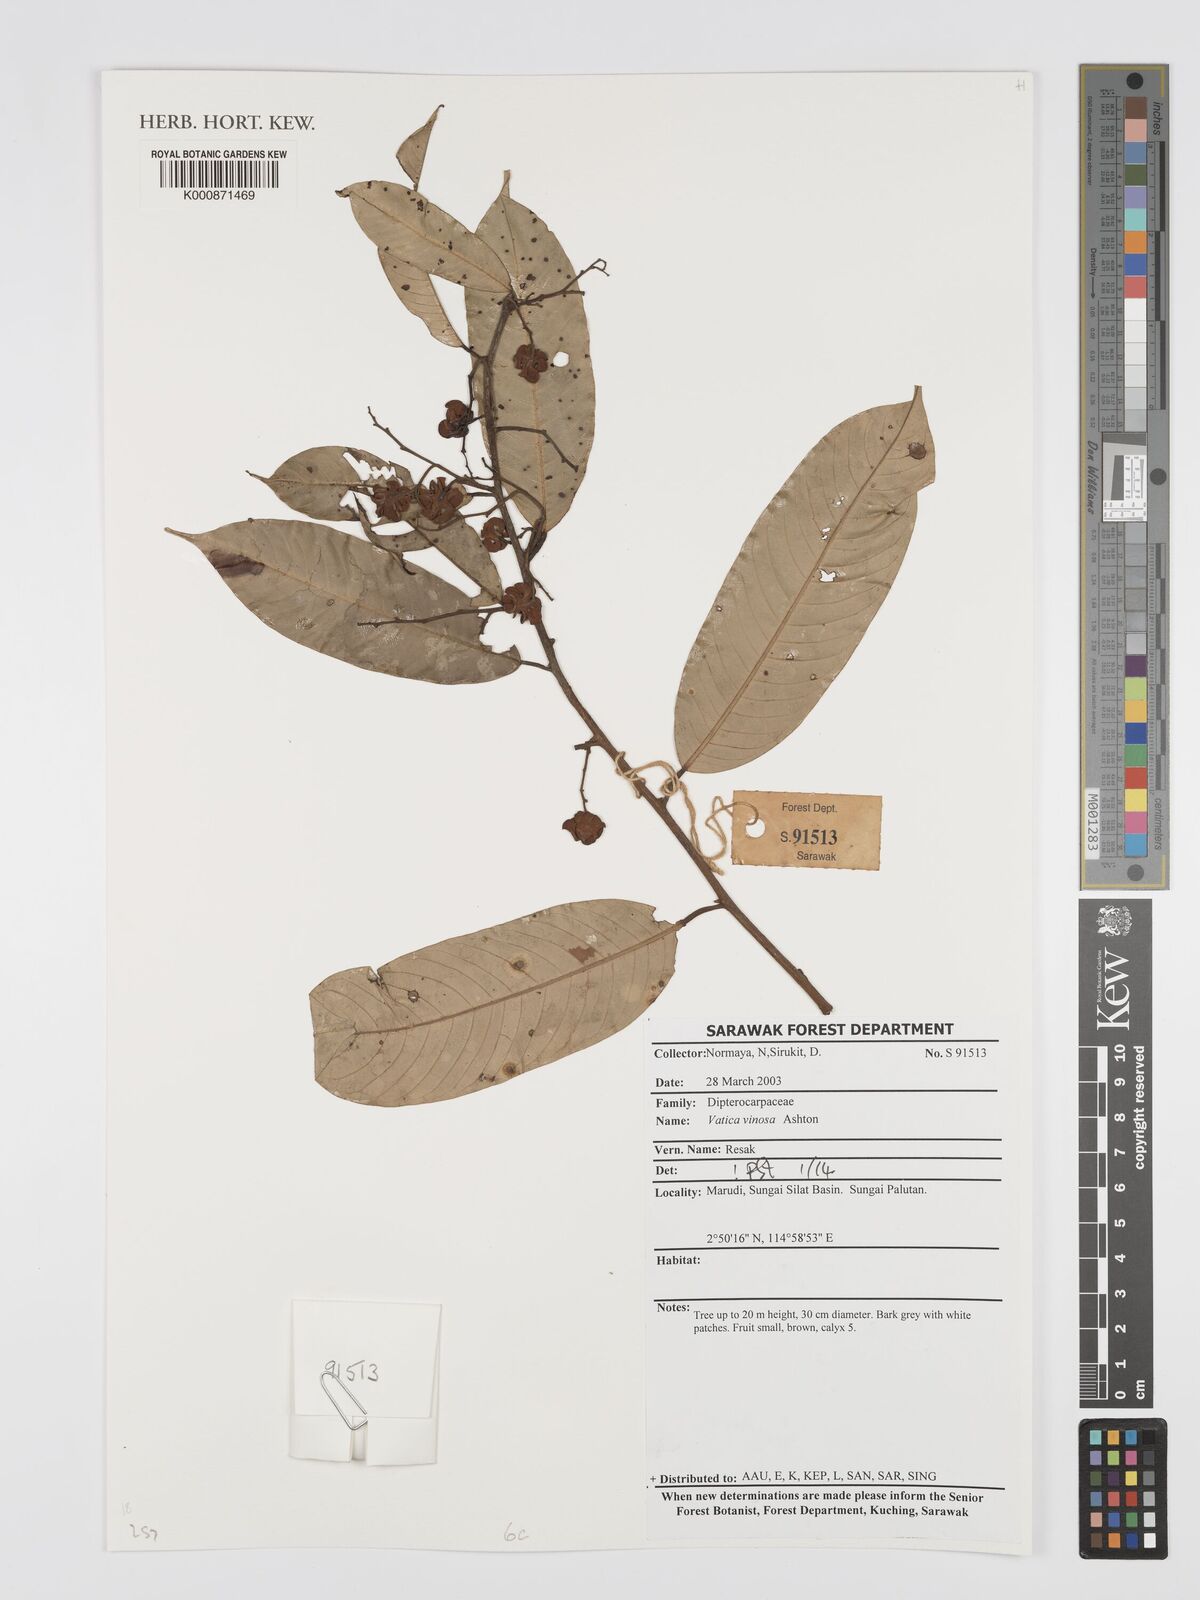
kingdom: Plantae
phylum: Tracheophyta
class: Magnoliopsida
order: Malvales
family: Dipterocarpaceae
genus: Vatica
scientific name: Vatica vinosa
